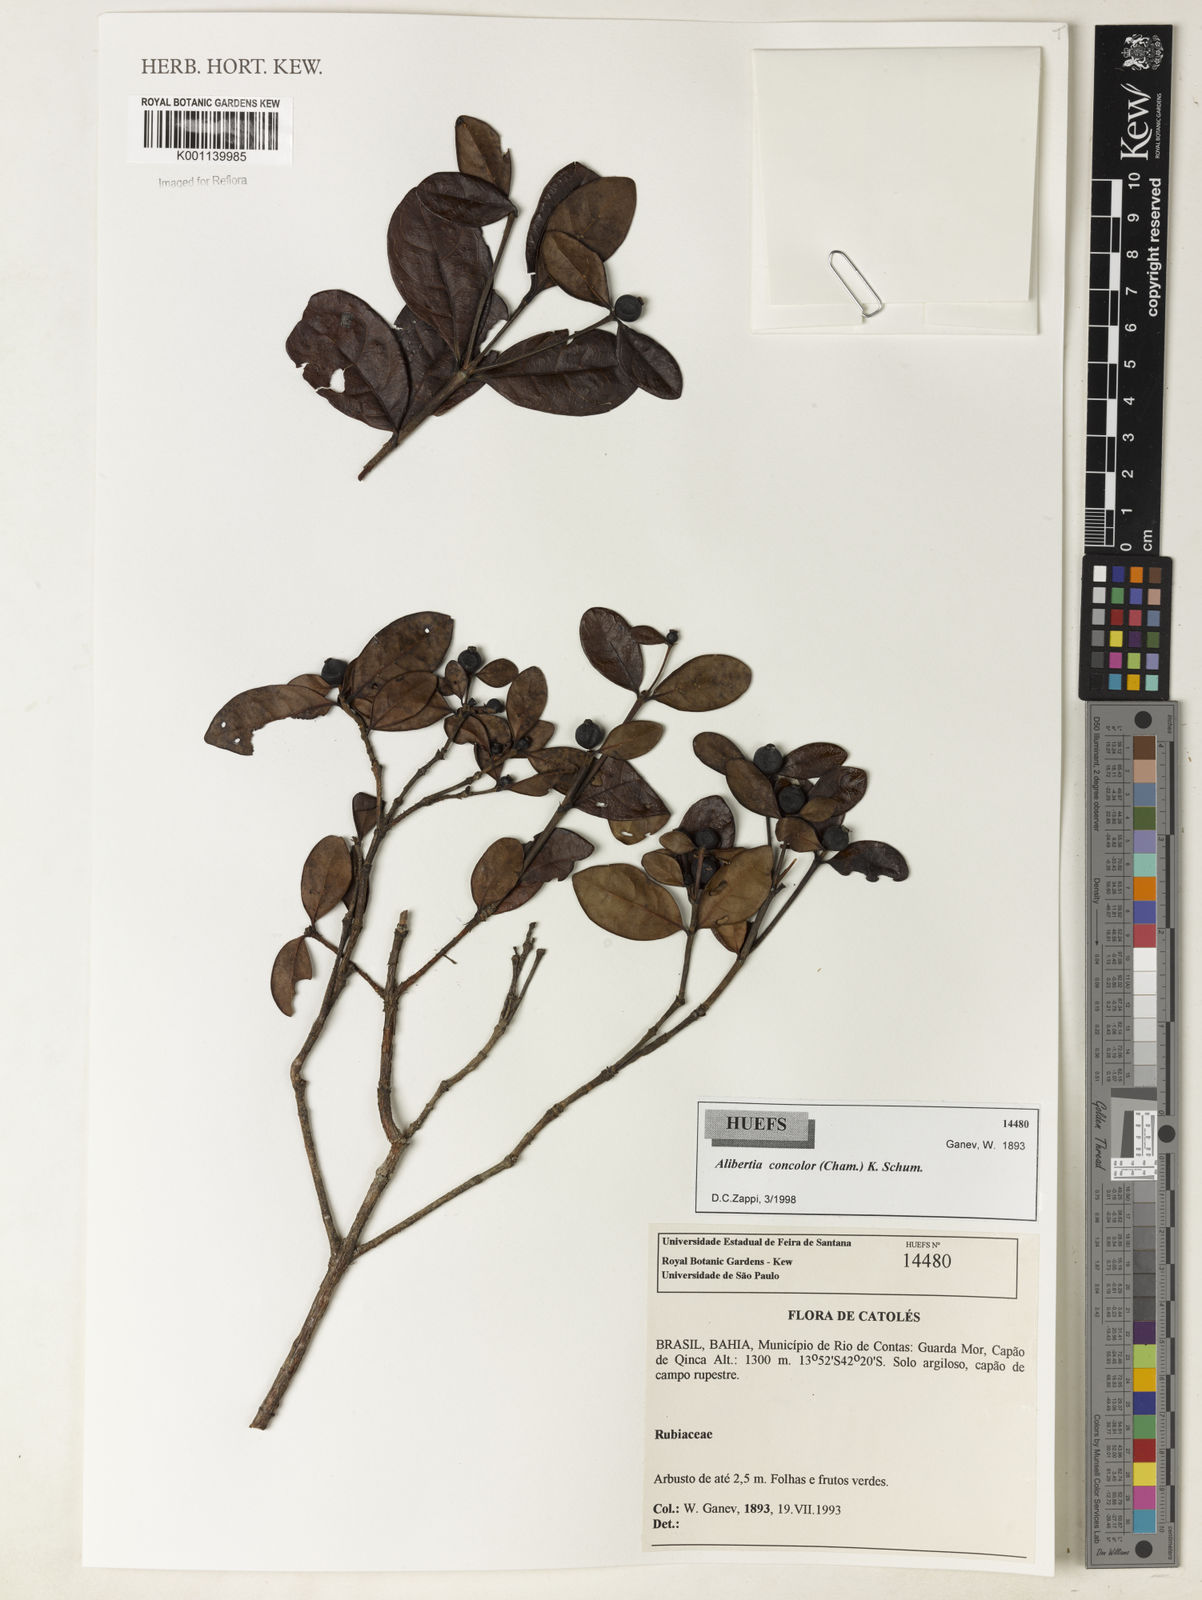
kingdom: Plantae
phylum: Tracheophyta
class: Magnoliopsida
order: Gentianales
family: Rubiaceae
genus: Cordiera
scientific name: Cordiera concolor
